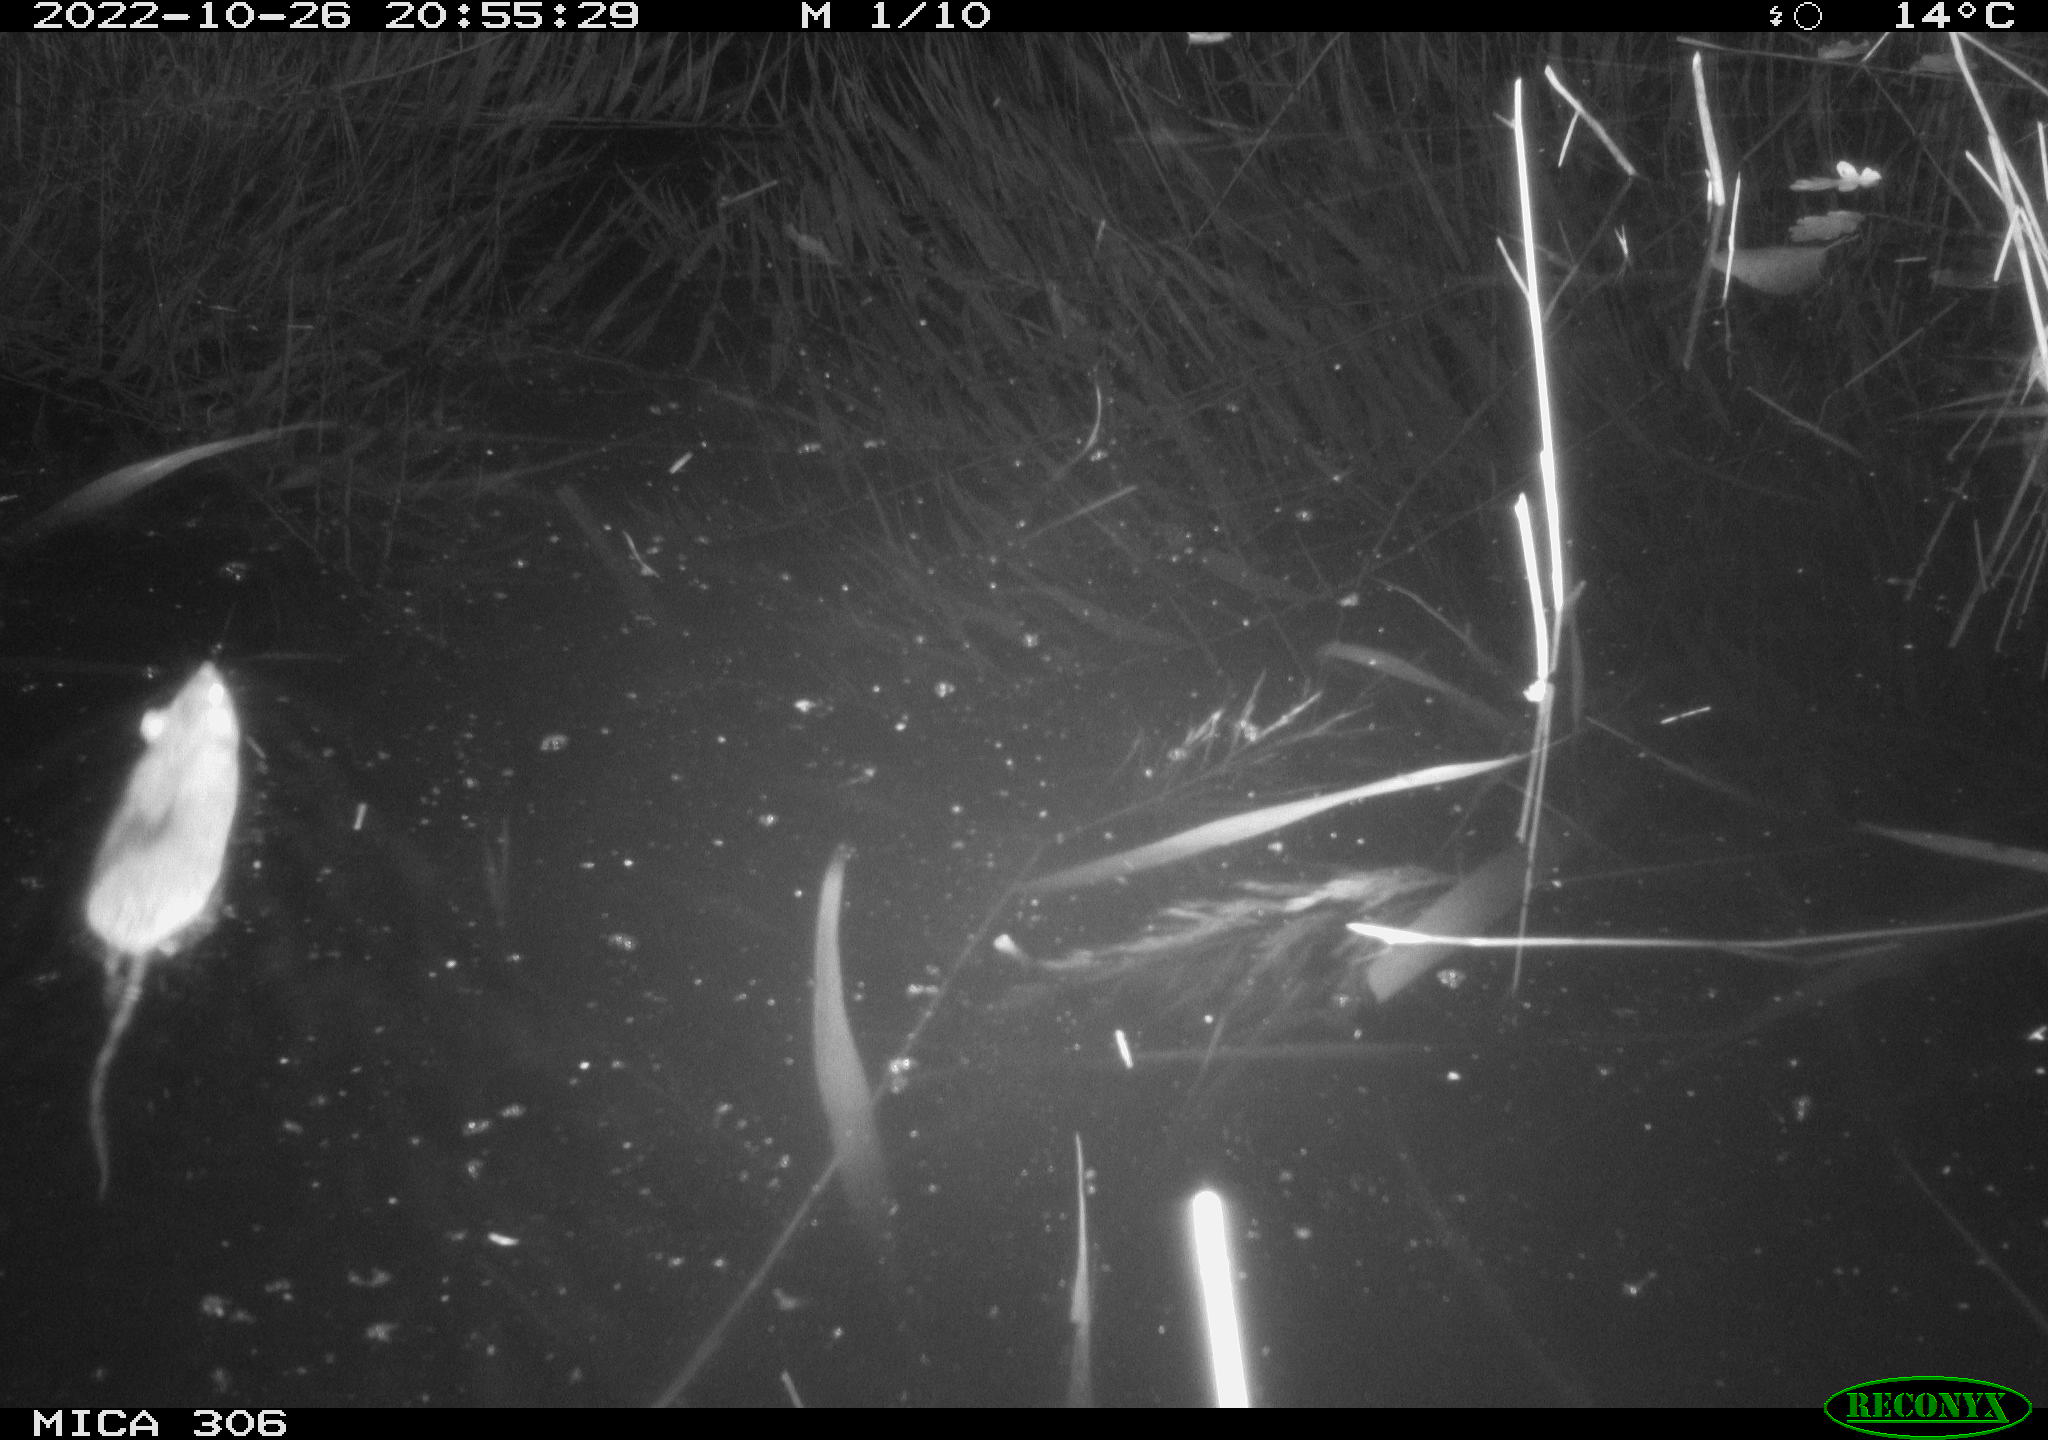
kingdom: Animalia
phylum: Chordata
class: Mammalia
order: Rodentia
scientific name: Rodentia
